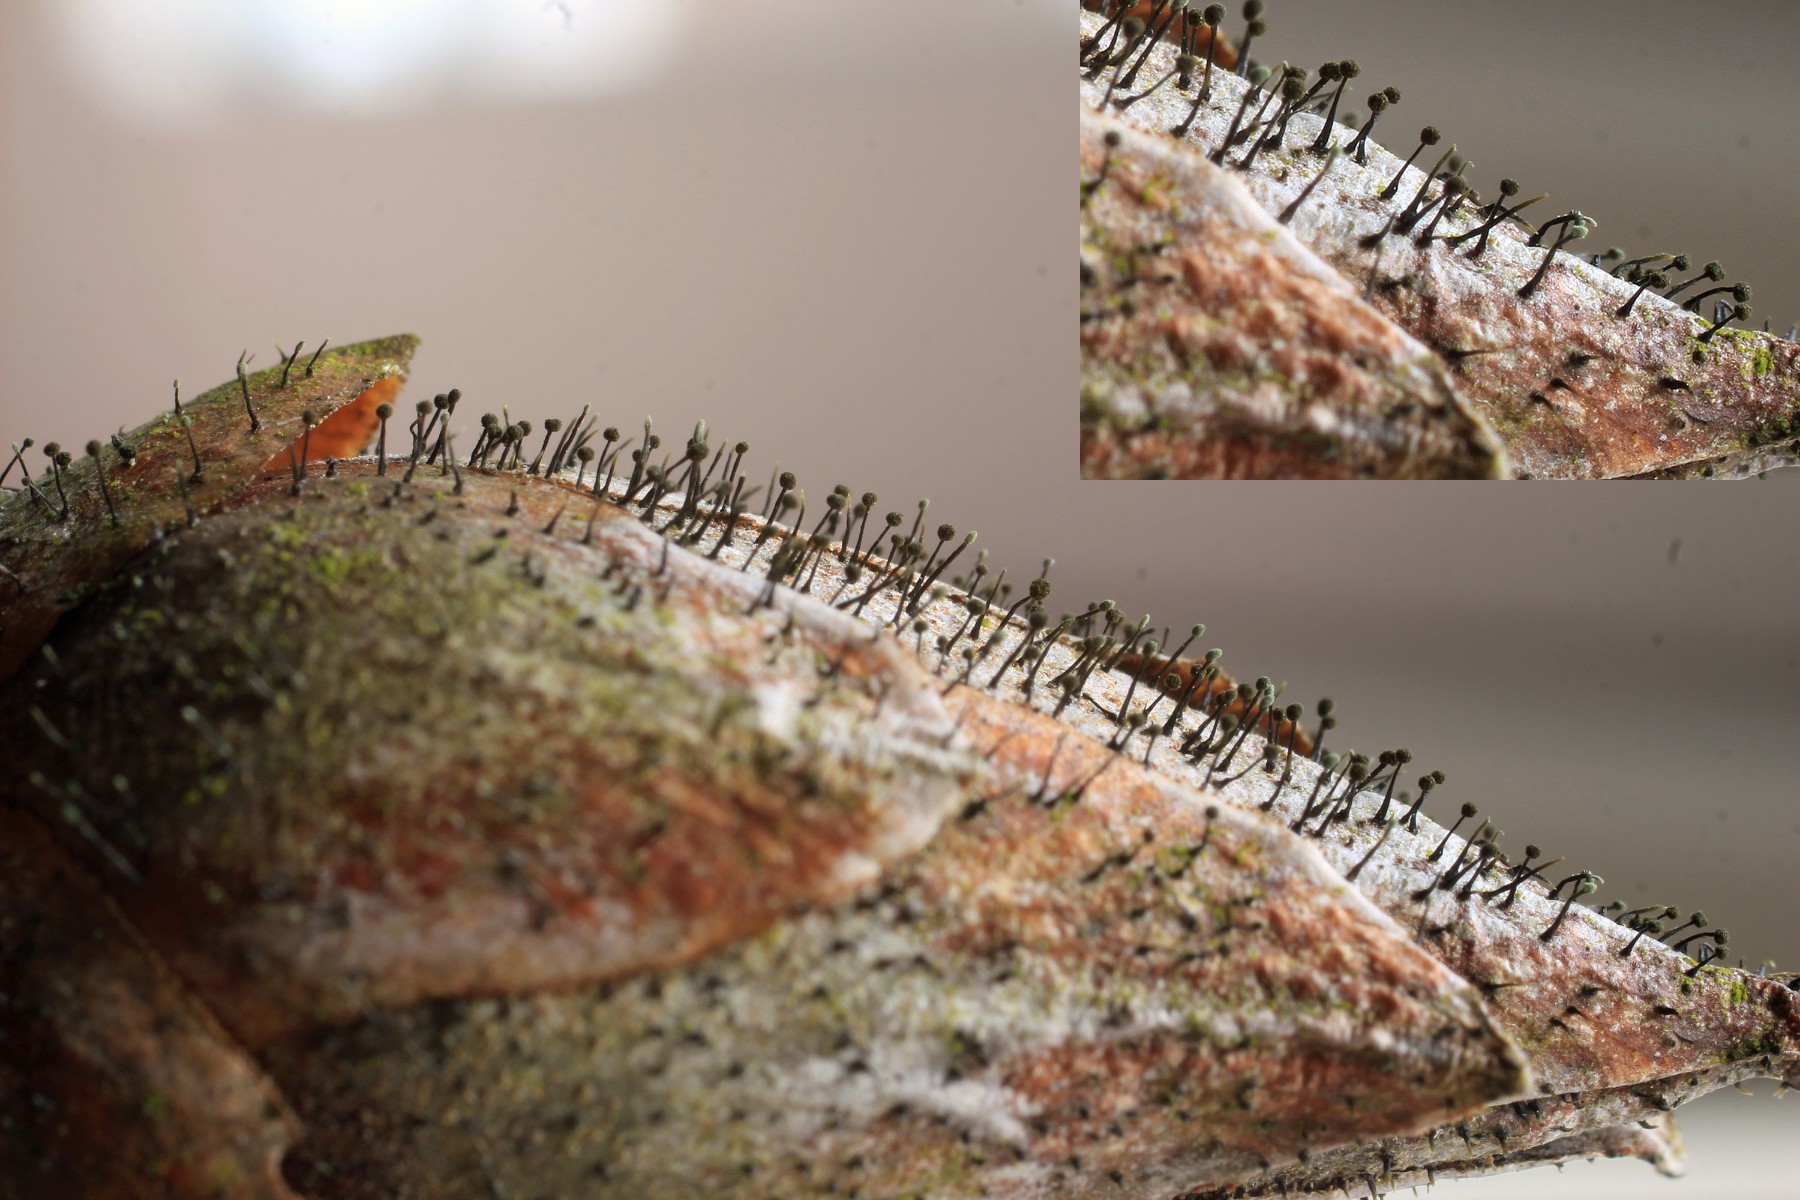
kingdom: Fungi
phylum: Ascomycota
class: Dothideomycetes
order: Pleosporales
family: Melanommataceae
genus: Seifertia
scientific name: Seifertia azaleae
